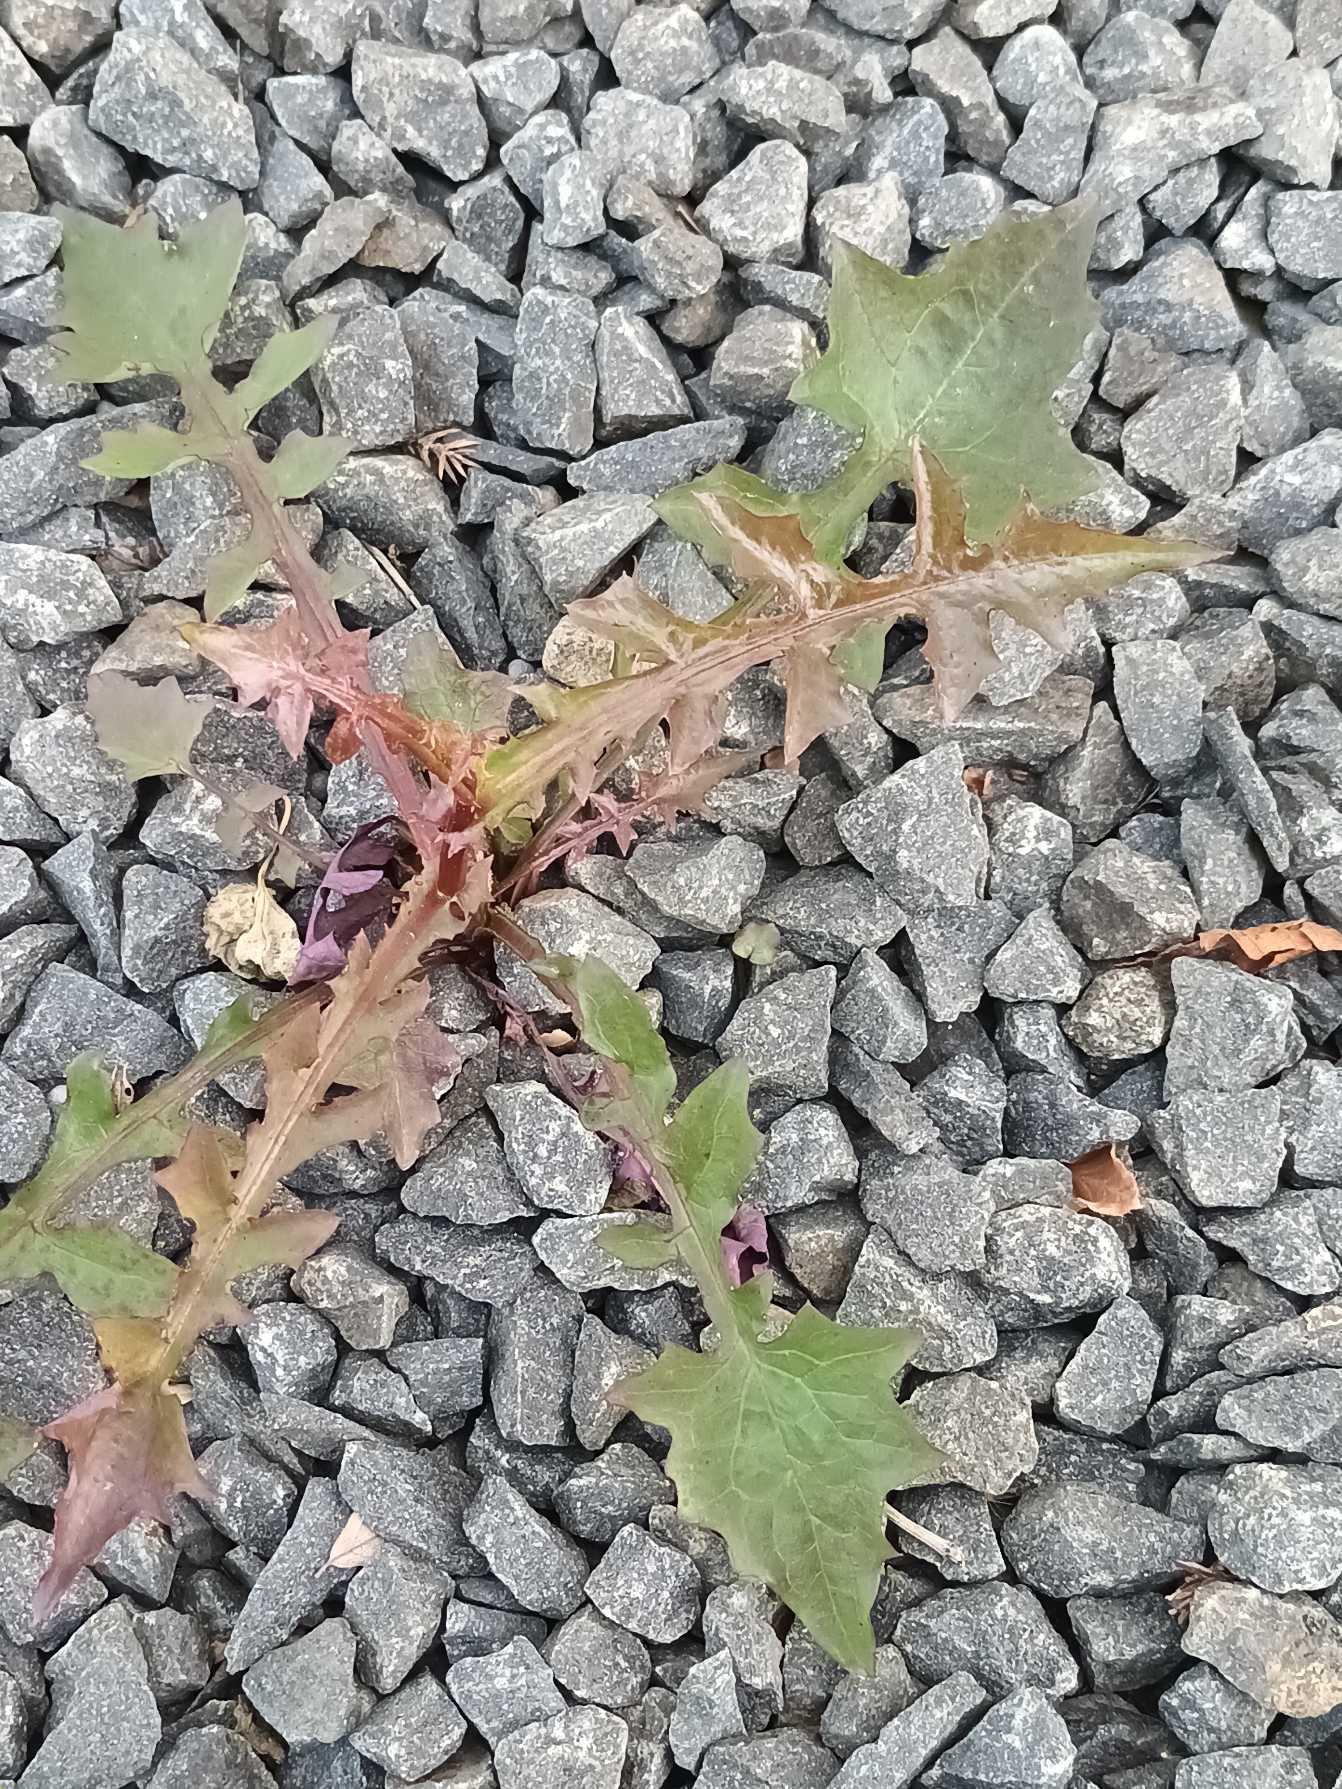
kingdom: Plantae
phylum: Tracheophyta
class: Magnoliopsida
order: Asterales
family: Asteraceae
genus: Mycelis
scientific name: Mycelis muralis
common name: Skov-salat
